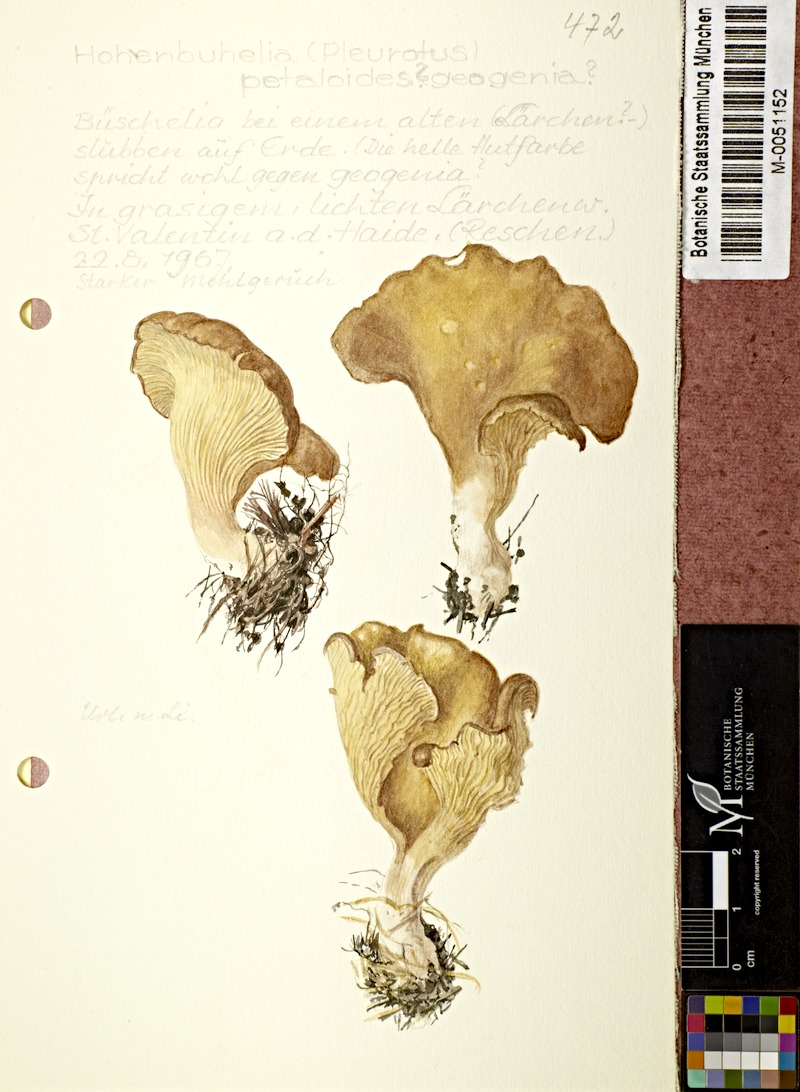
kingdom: Fungi
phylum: Basidiomycota
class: Agaricomycetes
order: Agaricales
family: Pleurotaceae
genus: Hohenbuehelia
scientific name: Hohenbuehelia petaloides
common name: Shoehorn oyster
